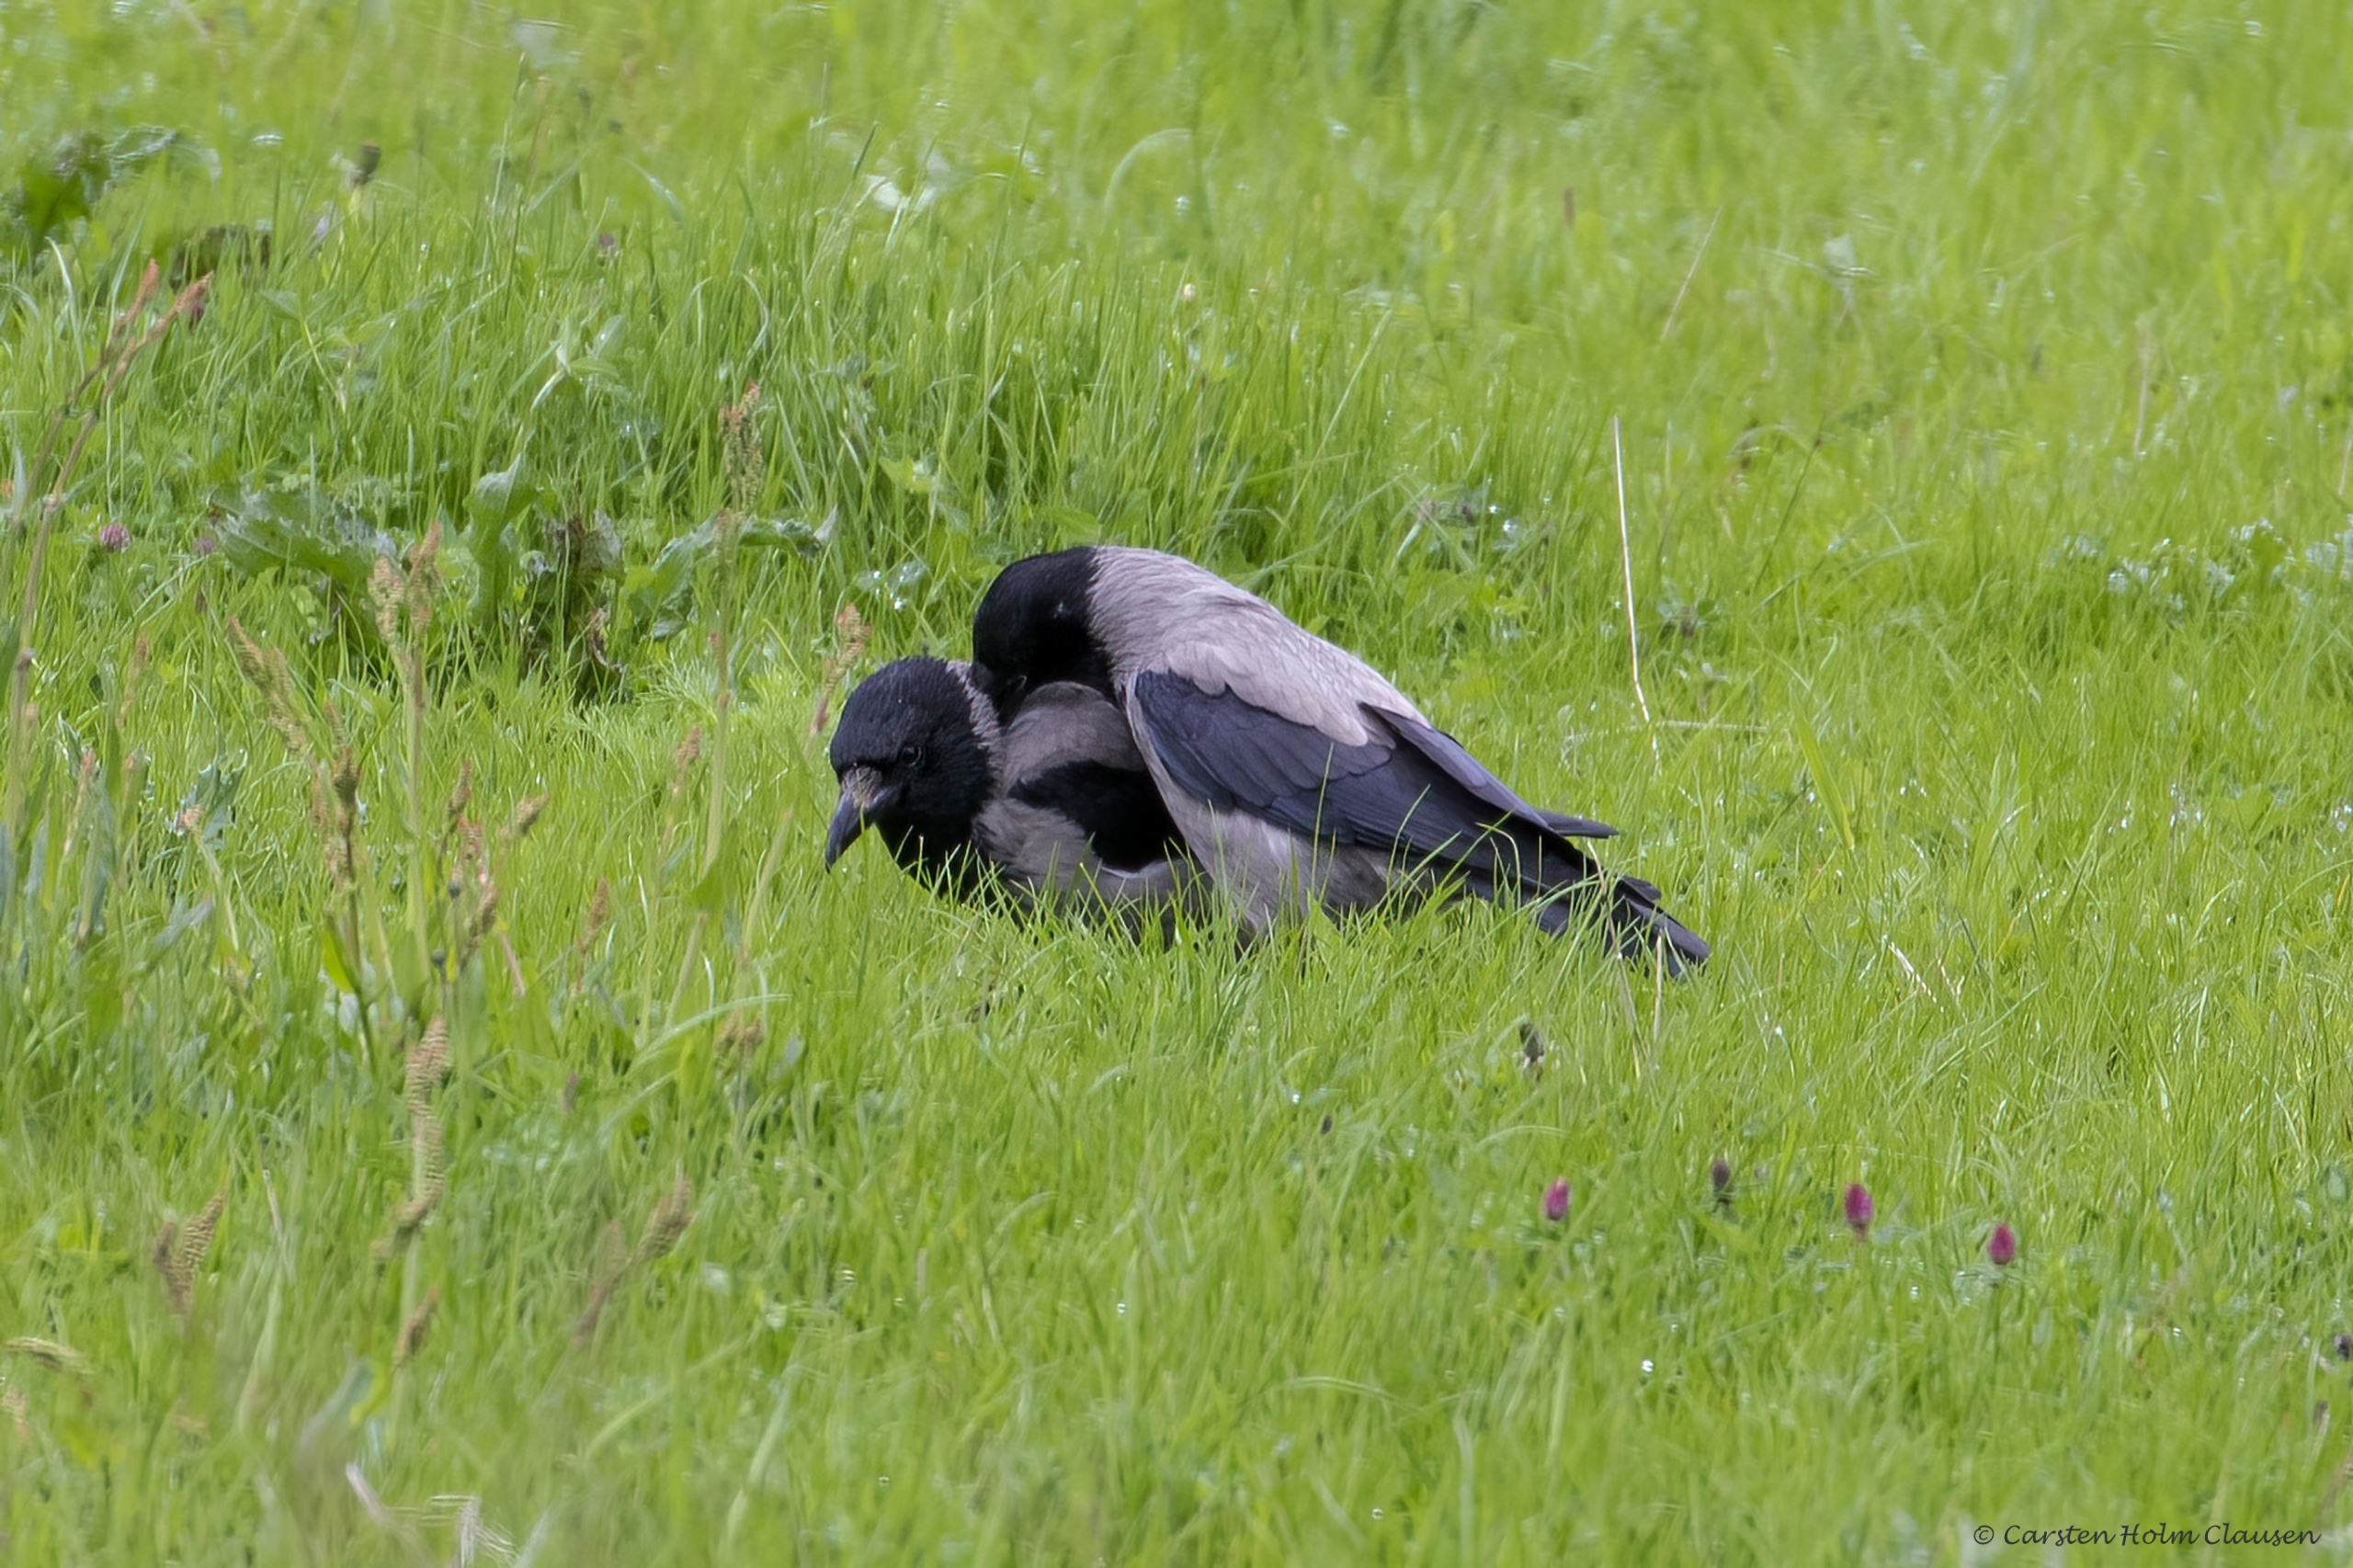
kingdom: Animalia
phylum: Chordata
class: Aves
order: Passeriformes
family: Corvidae
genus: Corvus
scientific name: Corvus cornix
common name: Gråkrage
